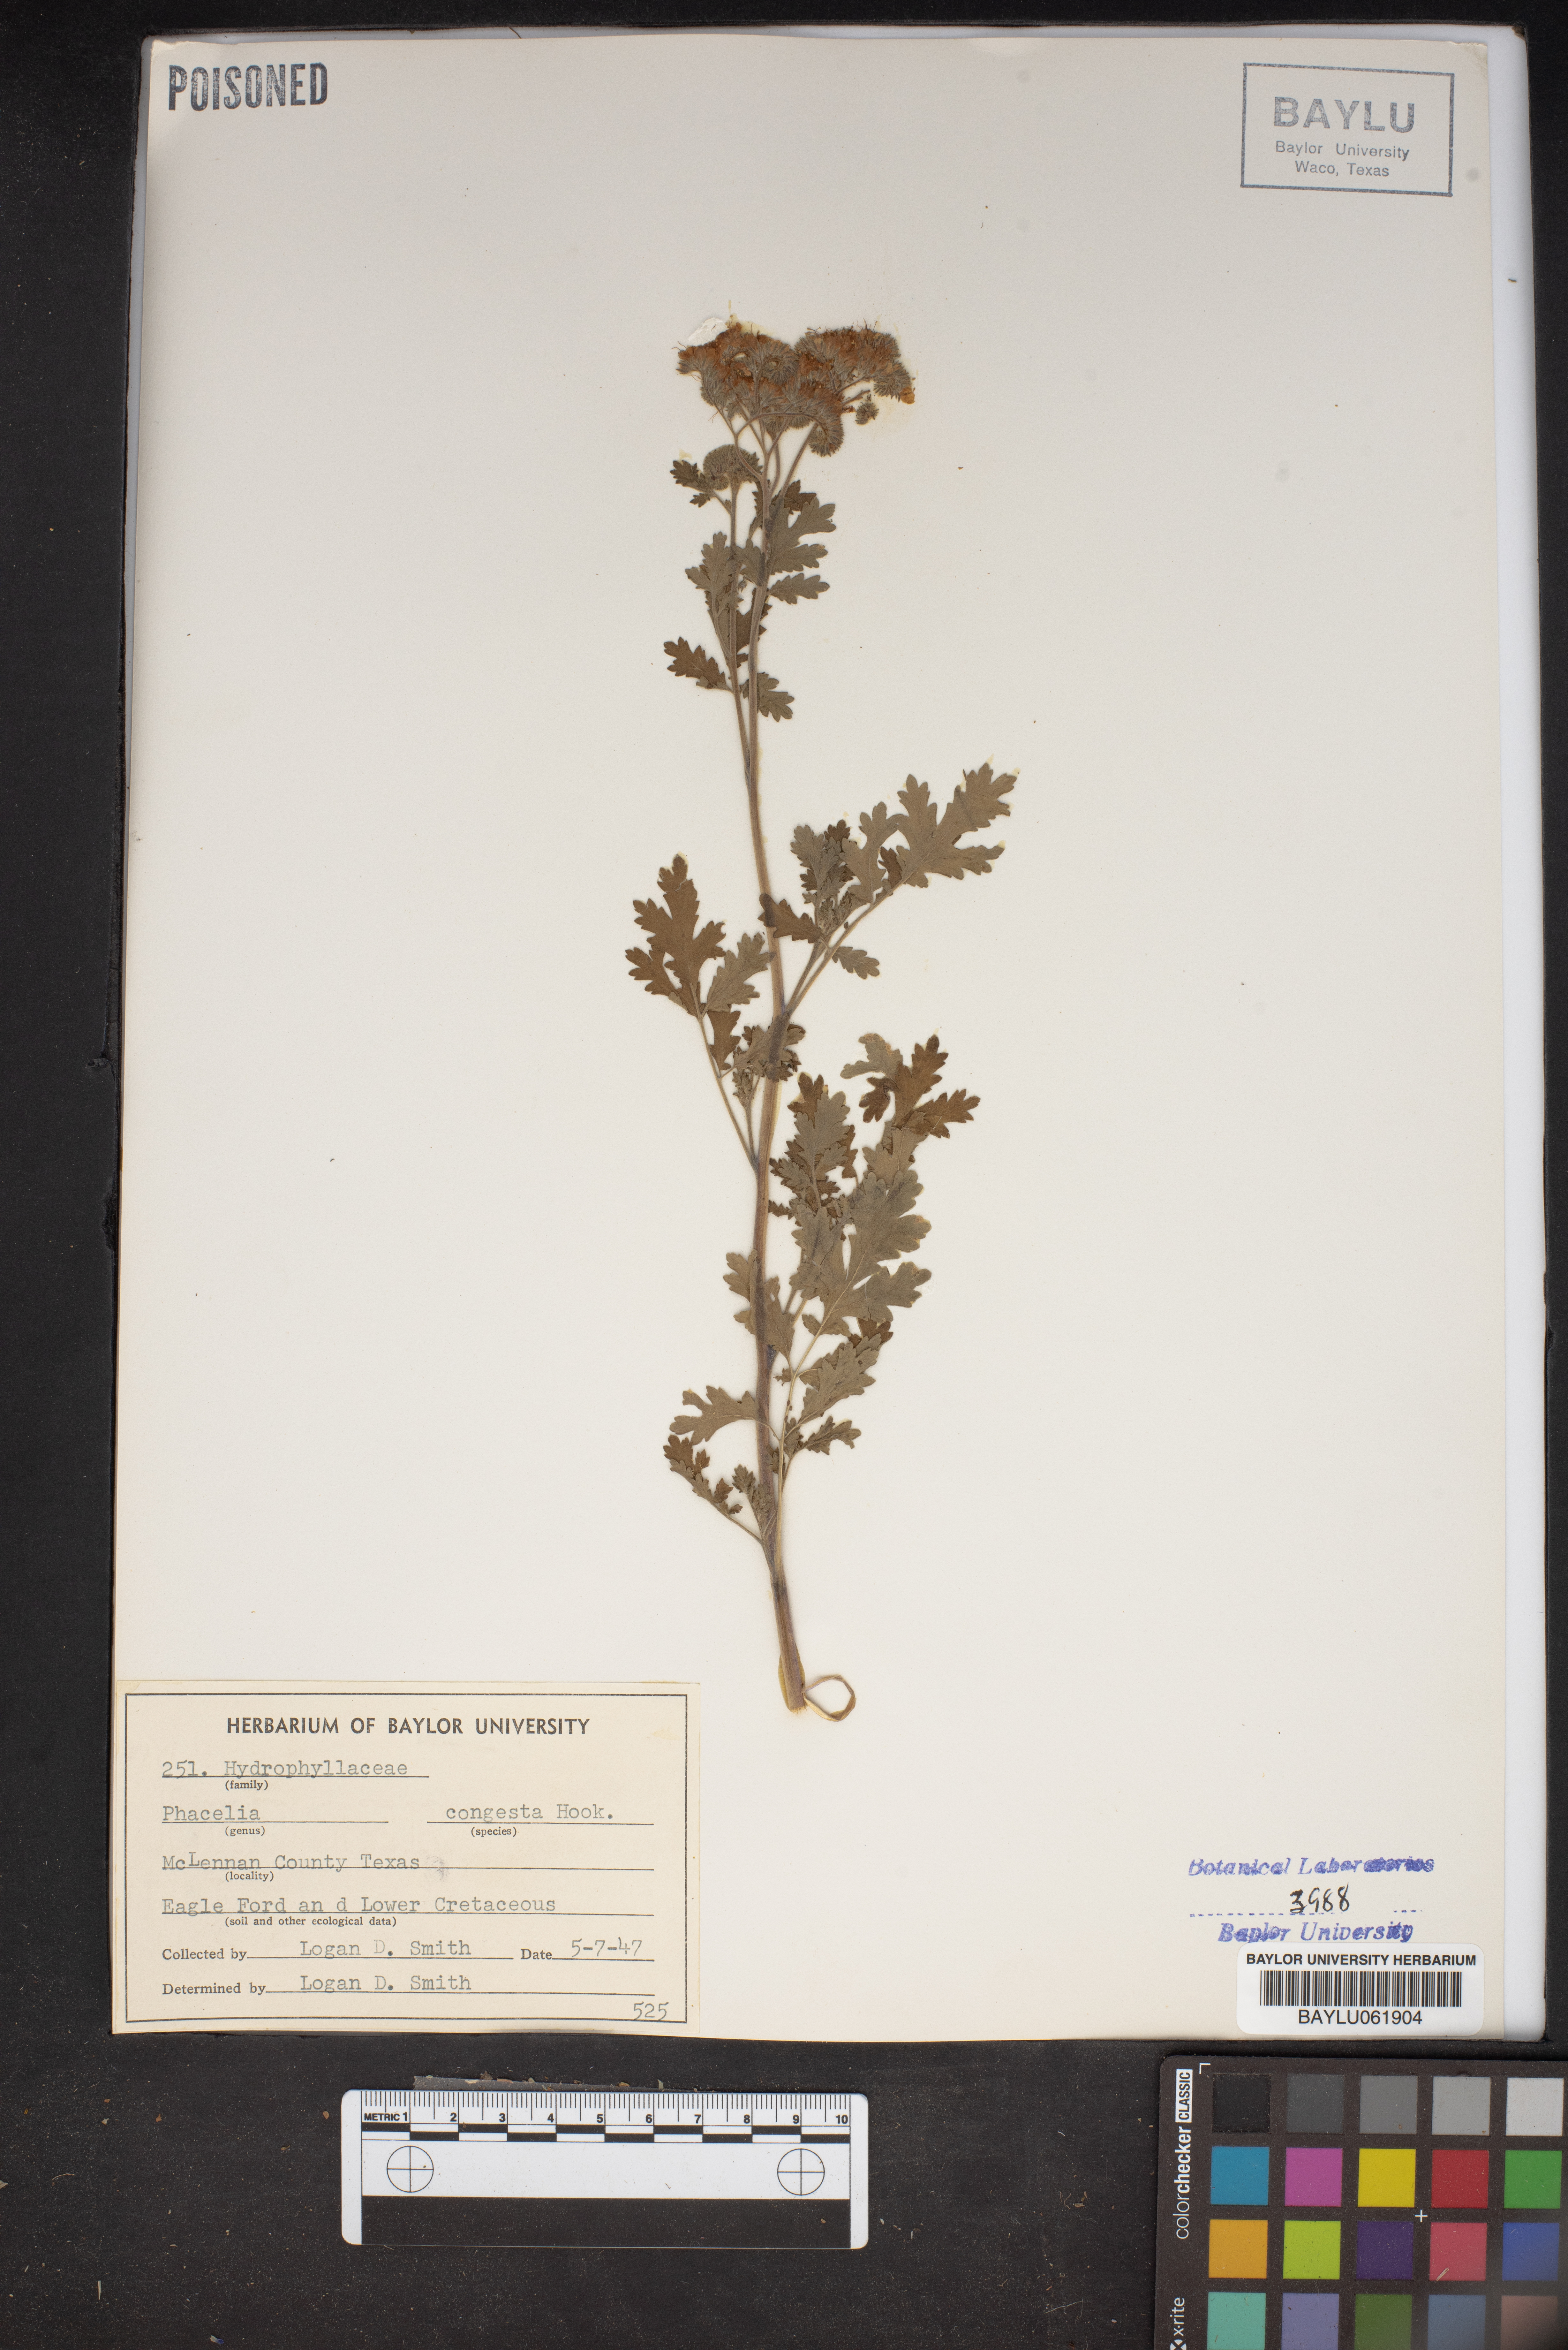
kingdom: Plantae
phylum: Tracheophyta
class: Magnoliopsida
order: Boraginales
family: Hydrophyllaceae
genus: Phacelia
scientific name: Phacelia congesta
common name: Blue curls
